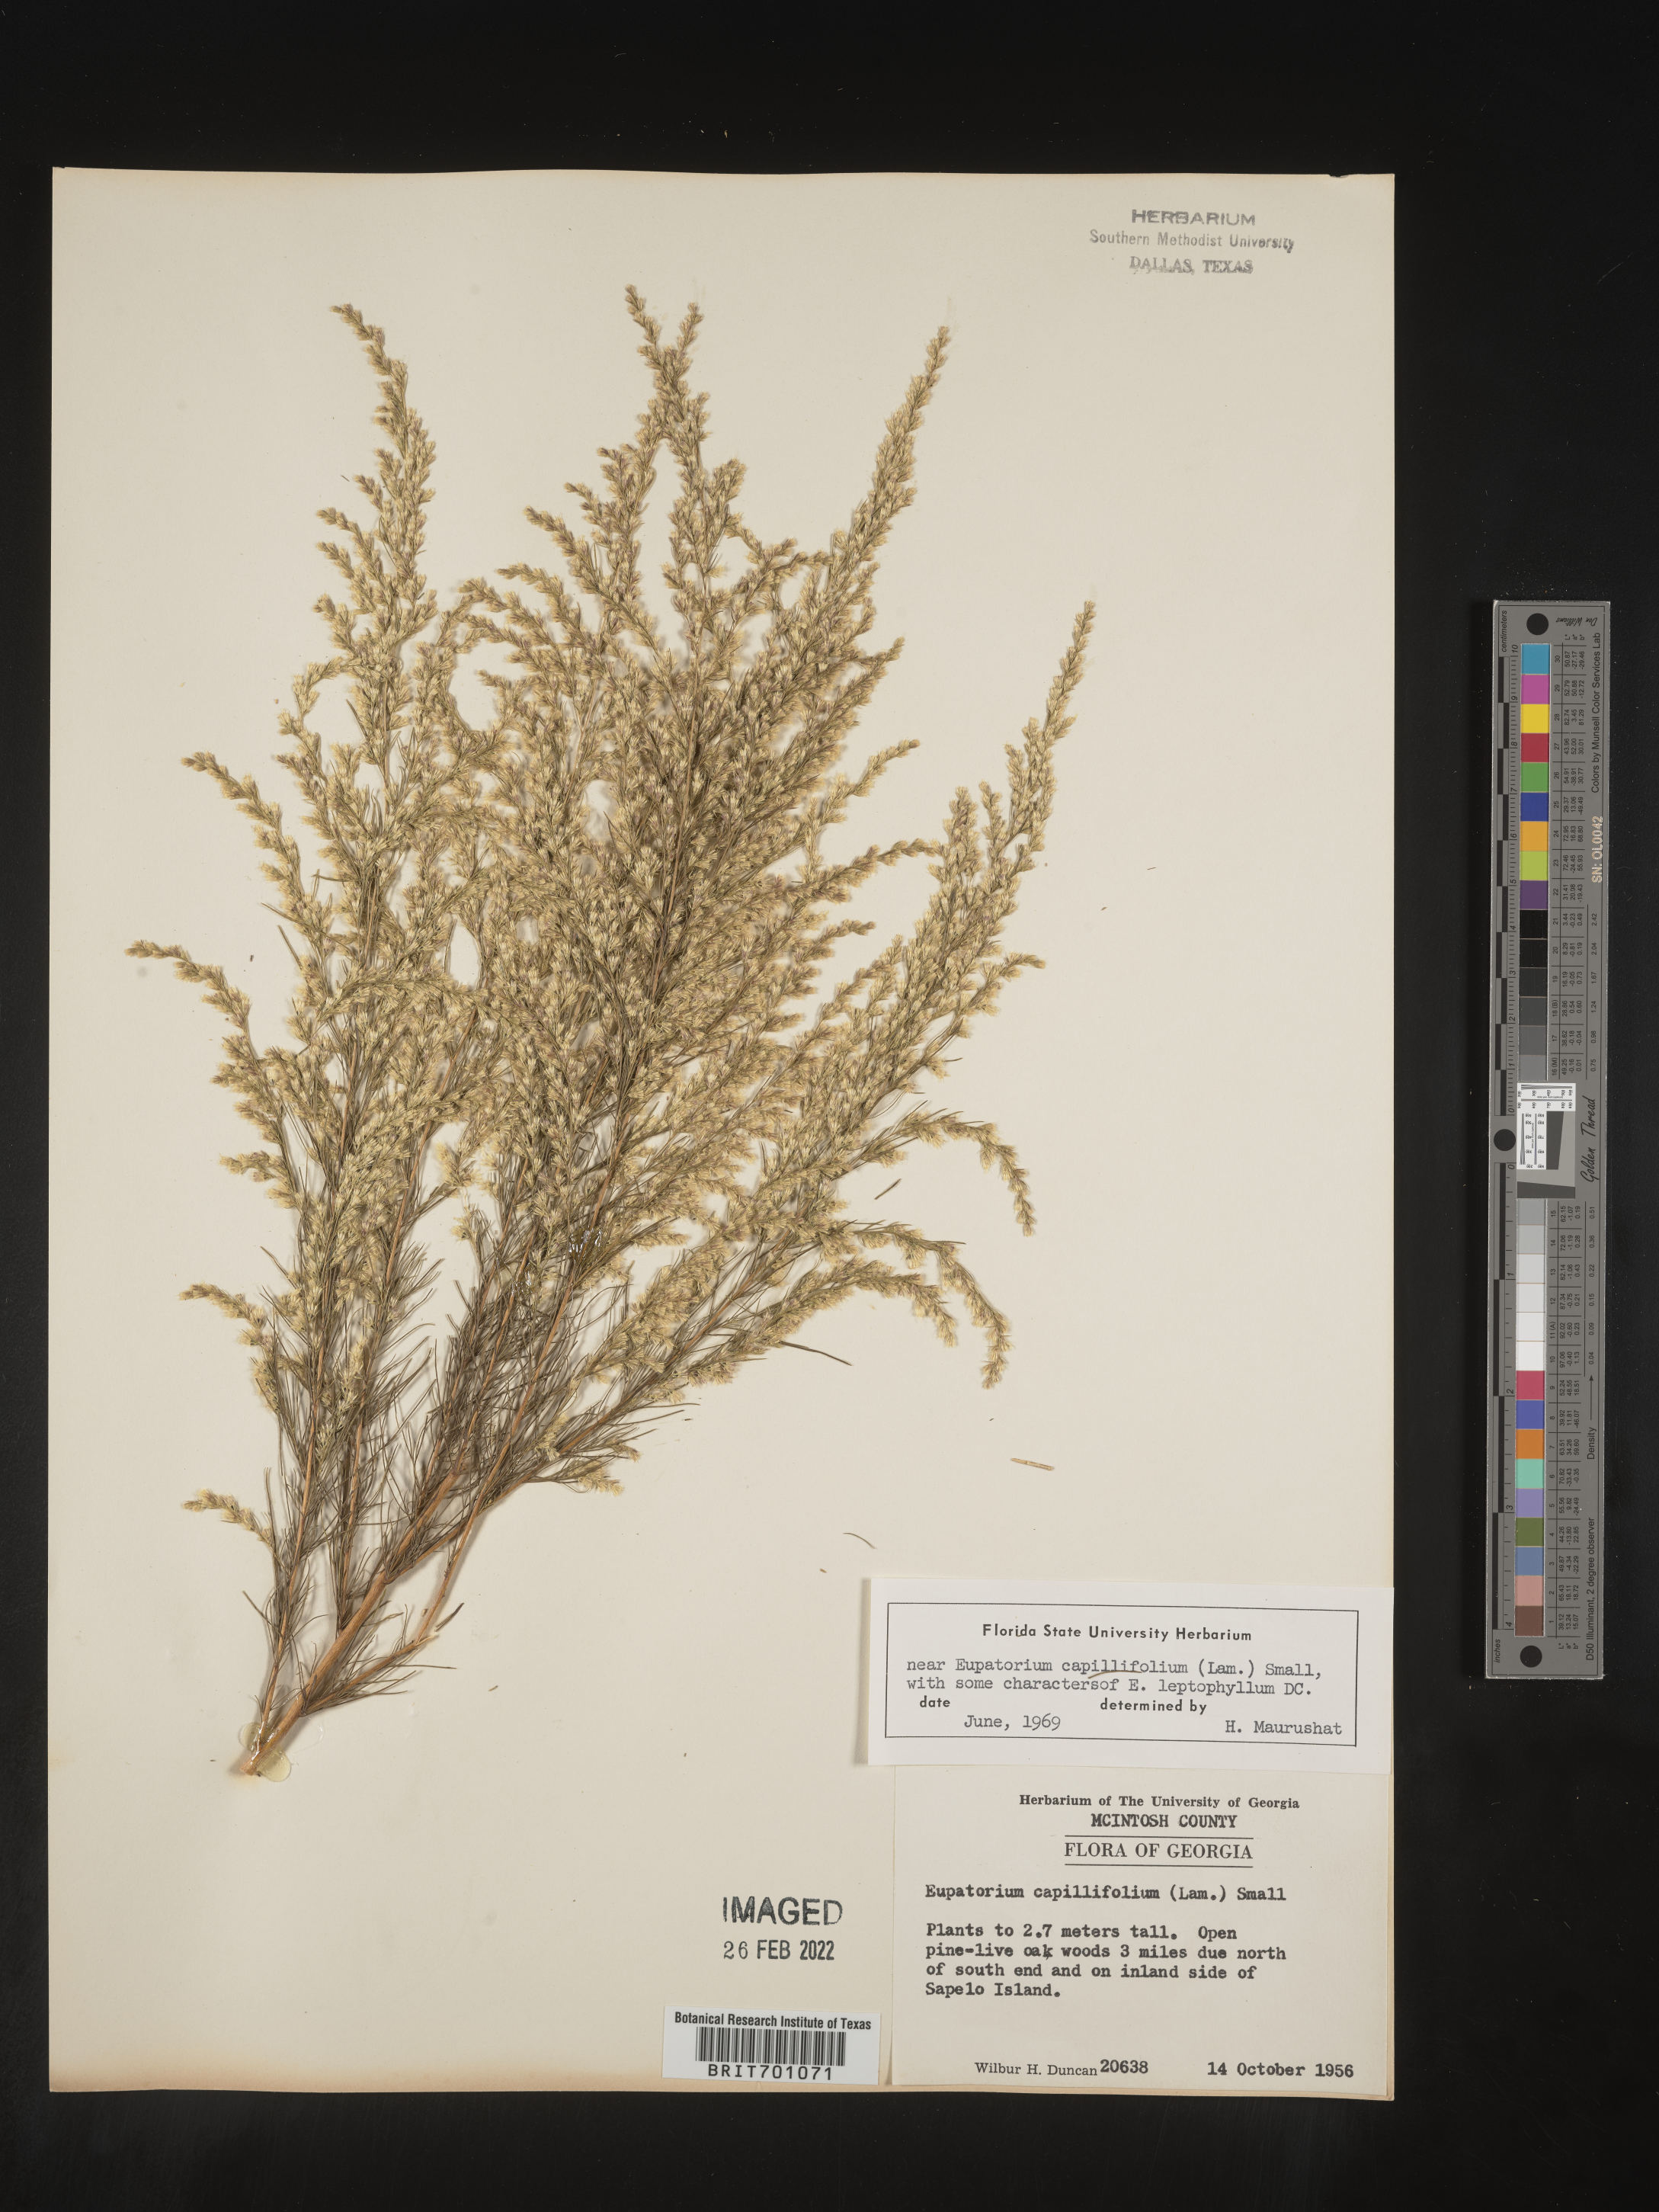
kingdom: Plantae
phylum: Tracheophyta
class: Magnoliopsida
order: Asterales
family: Asteraceae
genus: Eupatorium
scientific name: Eupatorium capillifolium
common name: Dog-fennel
